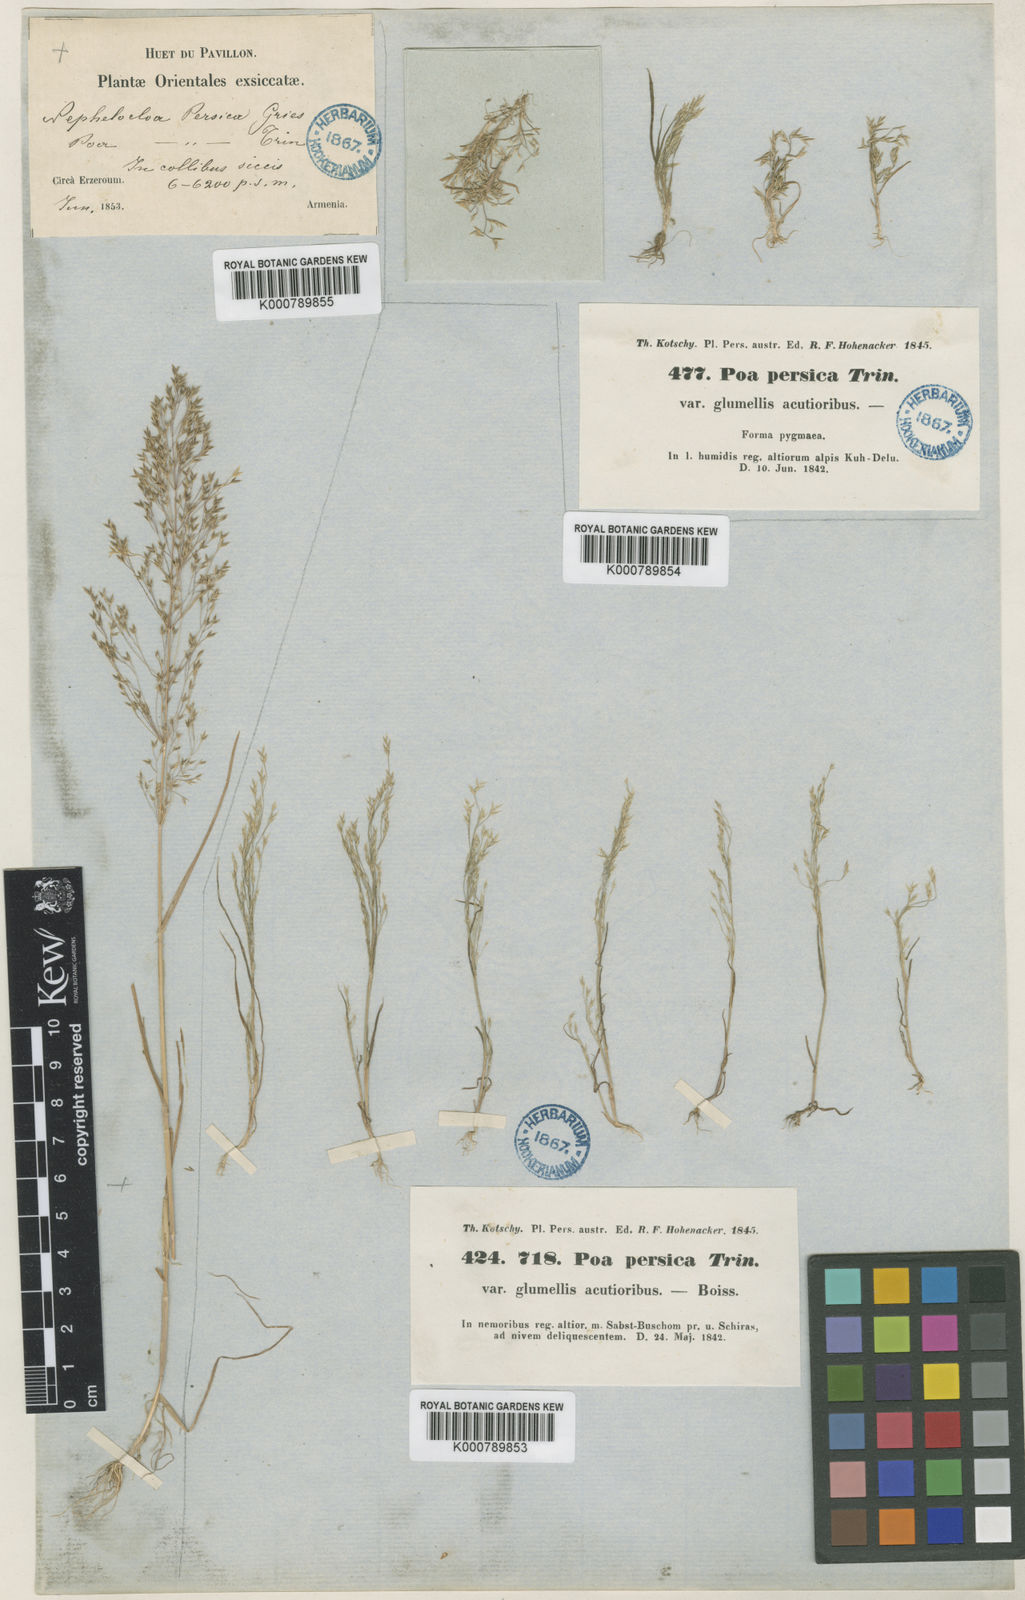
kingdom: Plantae
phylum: Tracheophyta
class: Liliopsida
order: Poales
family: Poaceae
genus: Poa
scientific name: Poa diaphora
